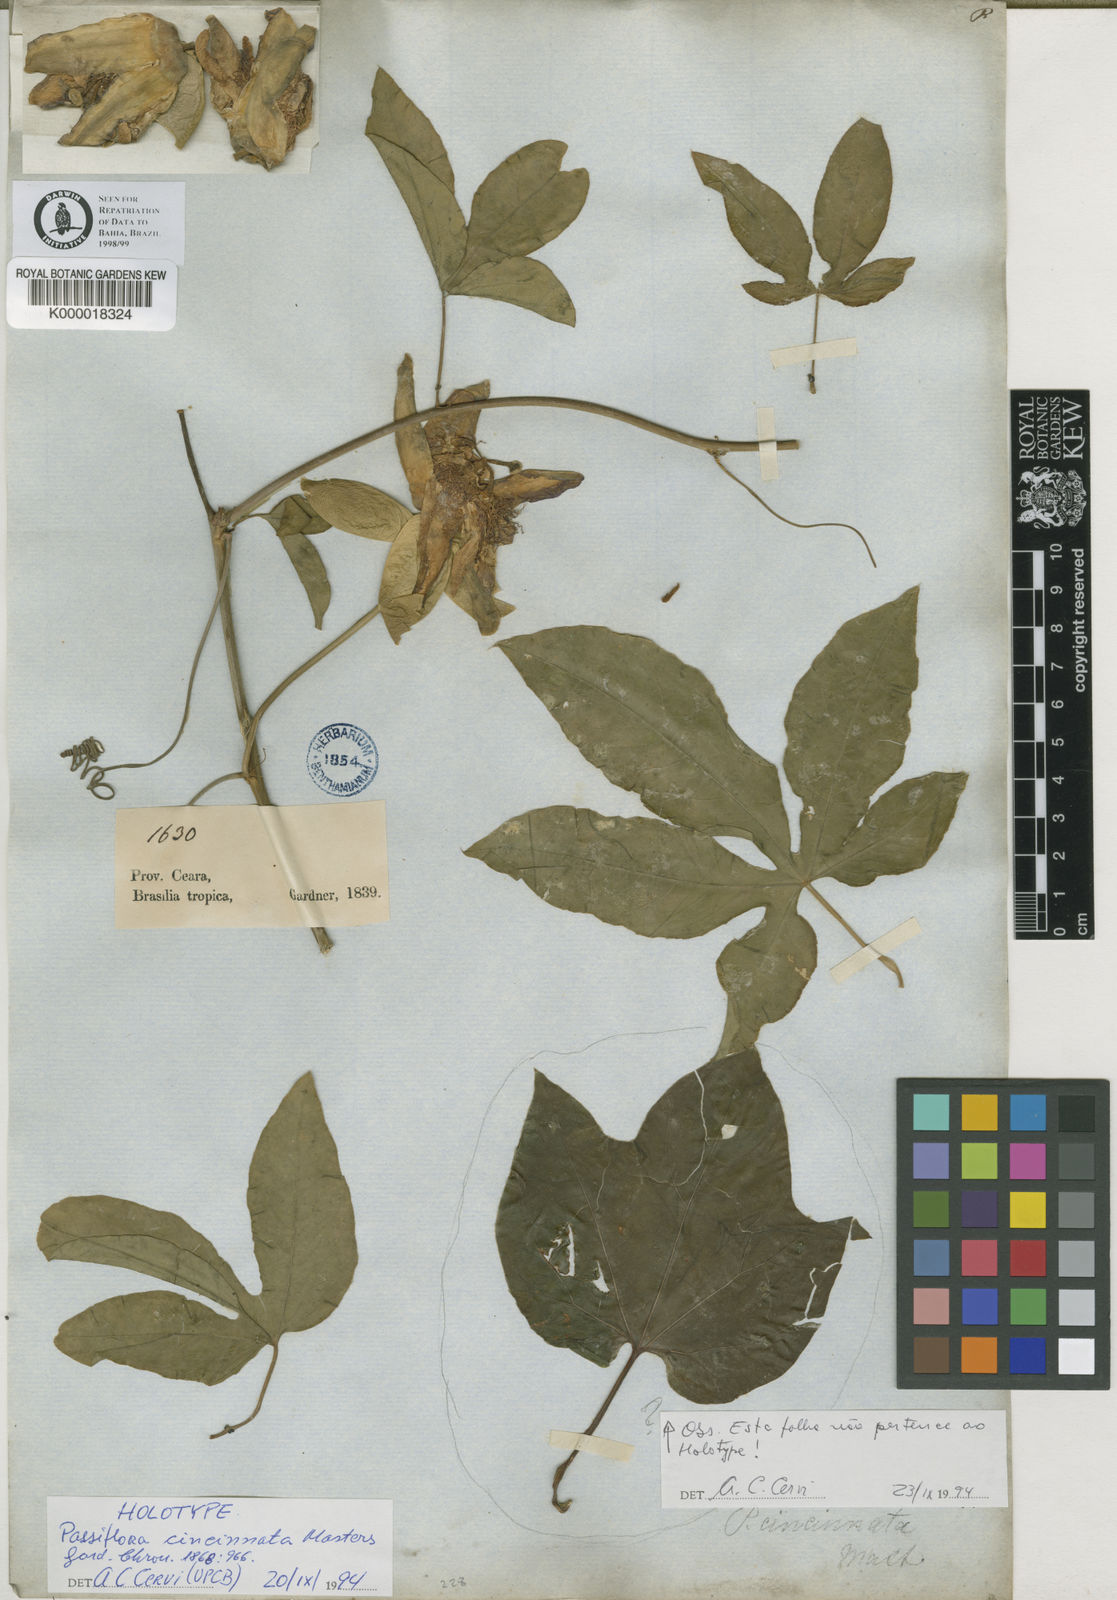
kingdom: Plantae
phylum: Tracheophyta
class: Magnoliopsida
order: Malpighiales
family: Passifloraceae
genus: Passiflora
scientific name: Passiflora cincinnata
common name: Crato passionvine
